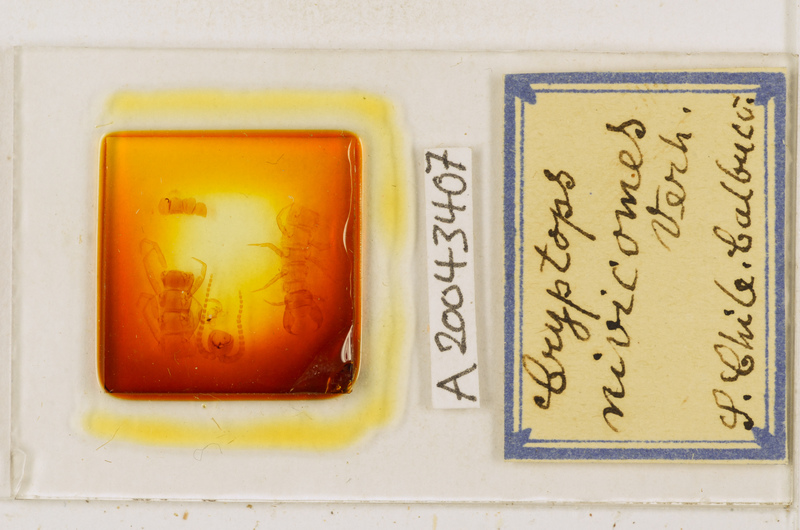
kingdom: Animalia
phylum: Arthropoda
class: Chilopoda
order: Scolopendromorpha
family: Cryptopidae
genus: Cryptops
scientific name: Cryptops nivicomes
